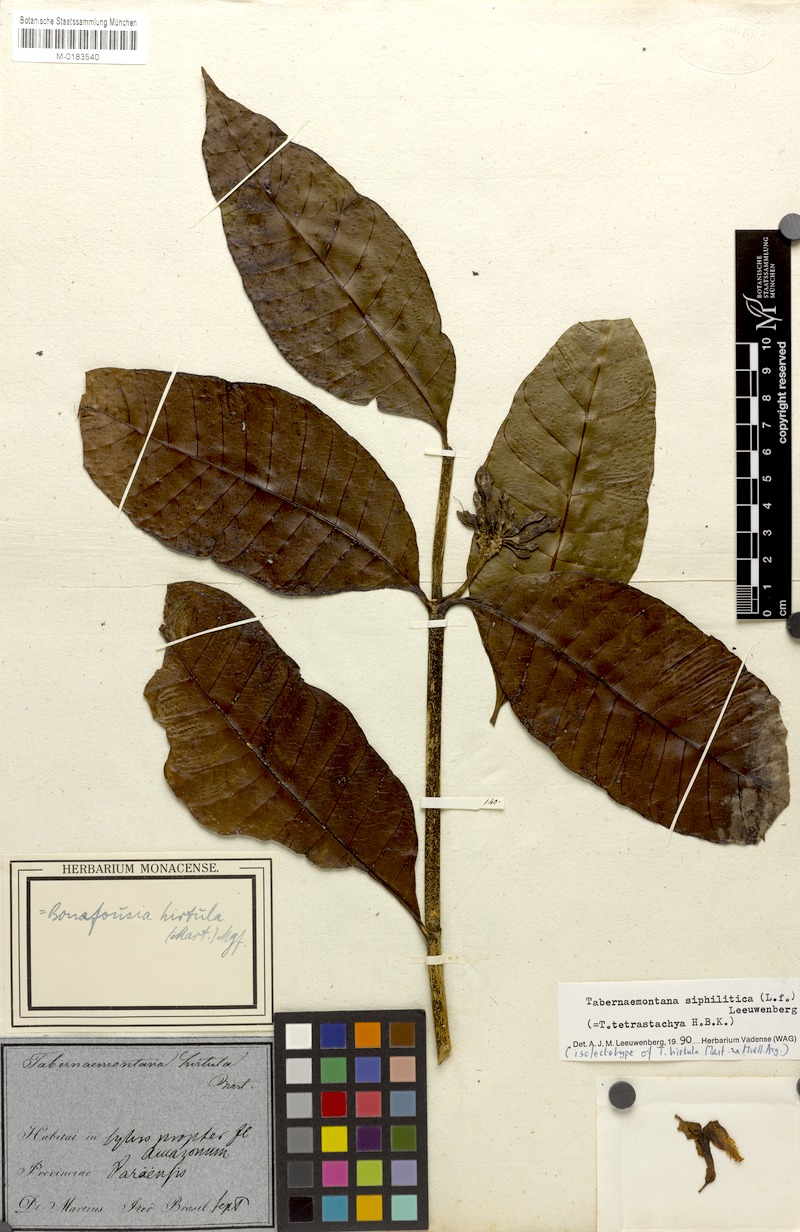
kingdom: Plantae
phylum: Tracheophyta
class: Magnoliopsida
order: Gentianales
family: Apocynaceae
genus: Tabernaemontana
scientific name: Tabernaemontana siphilitica
